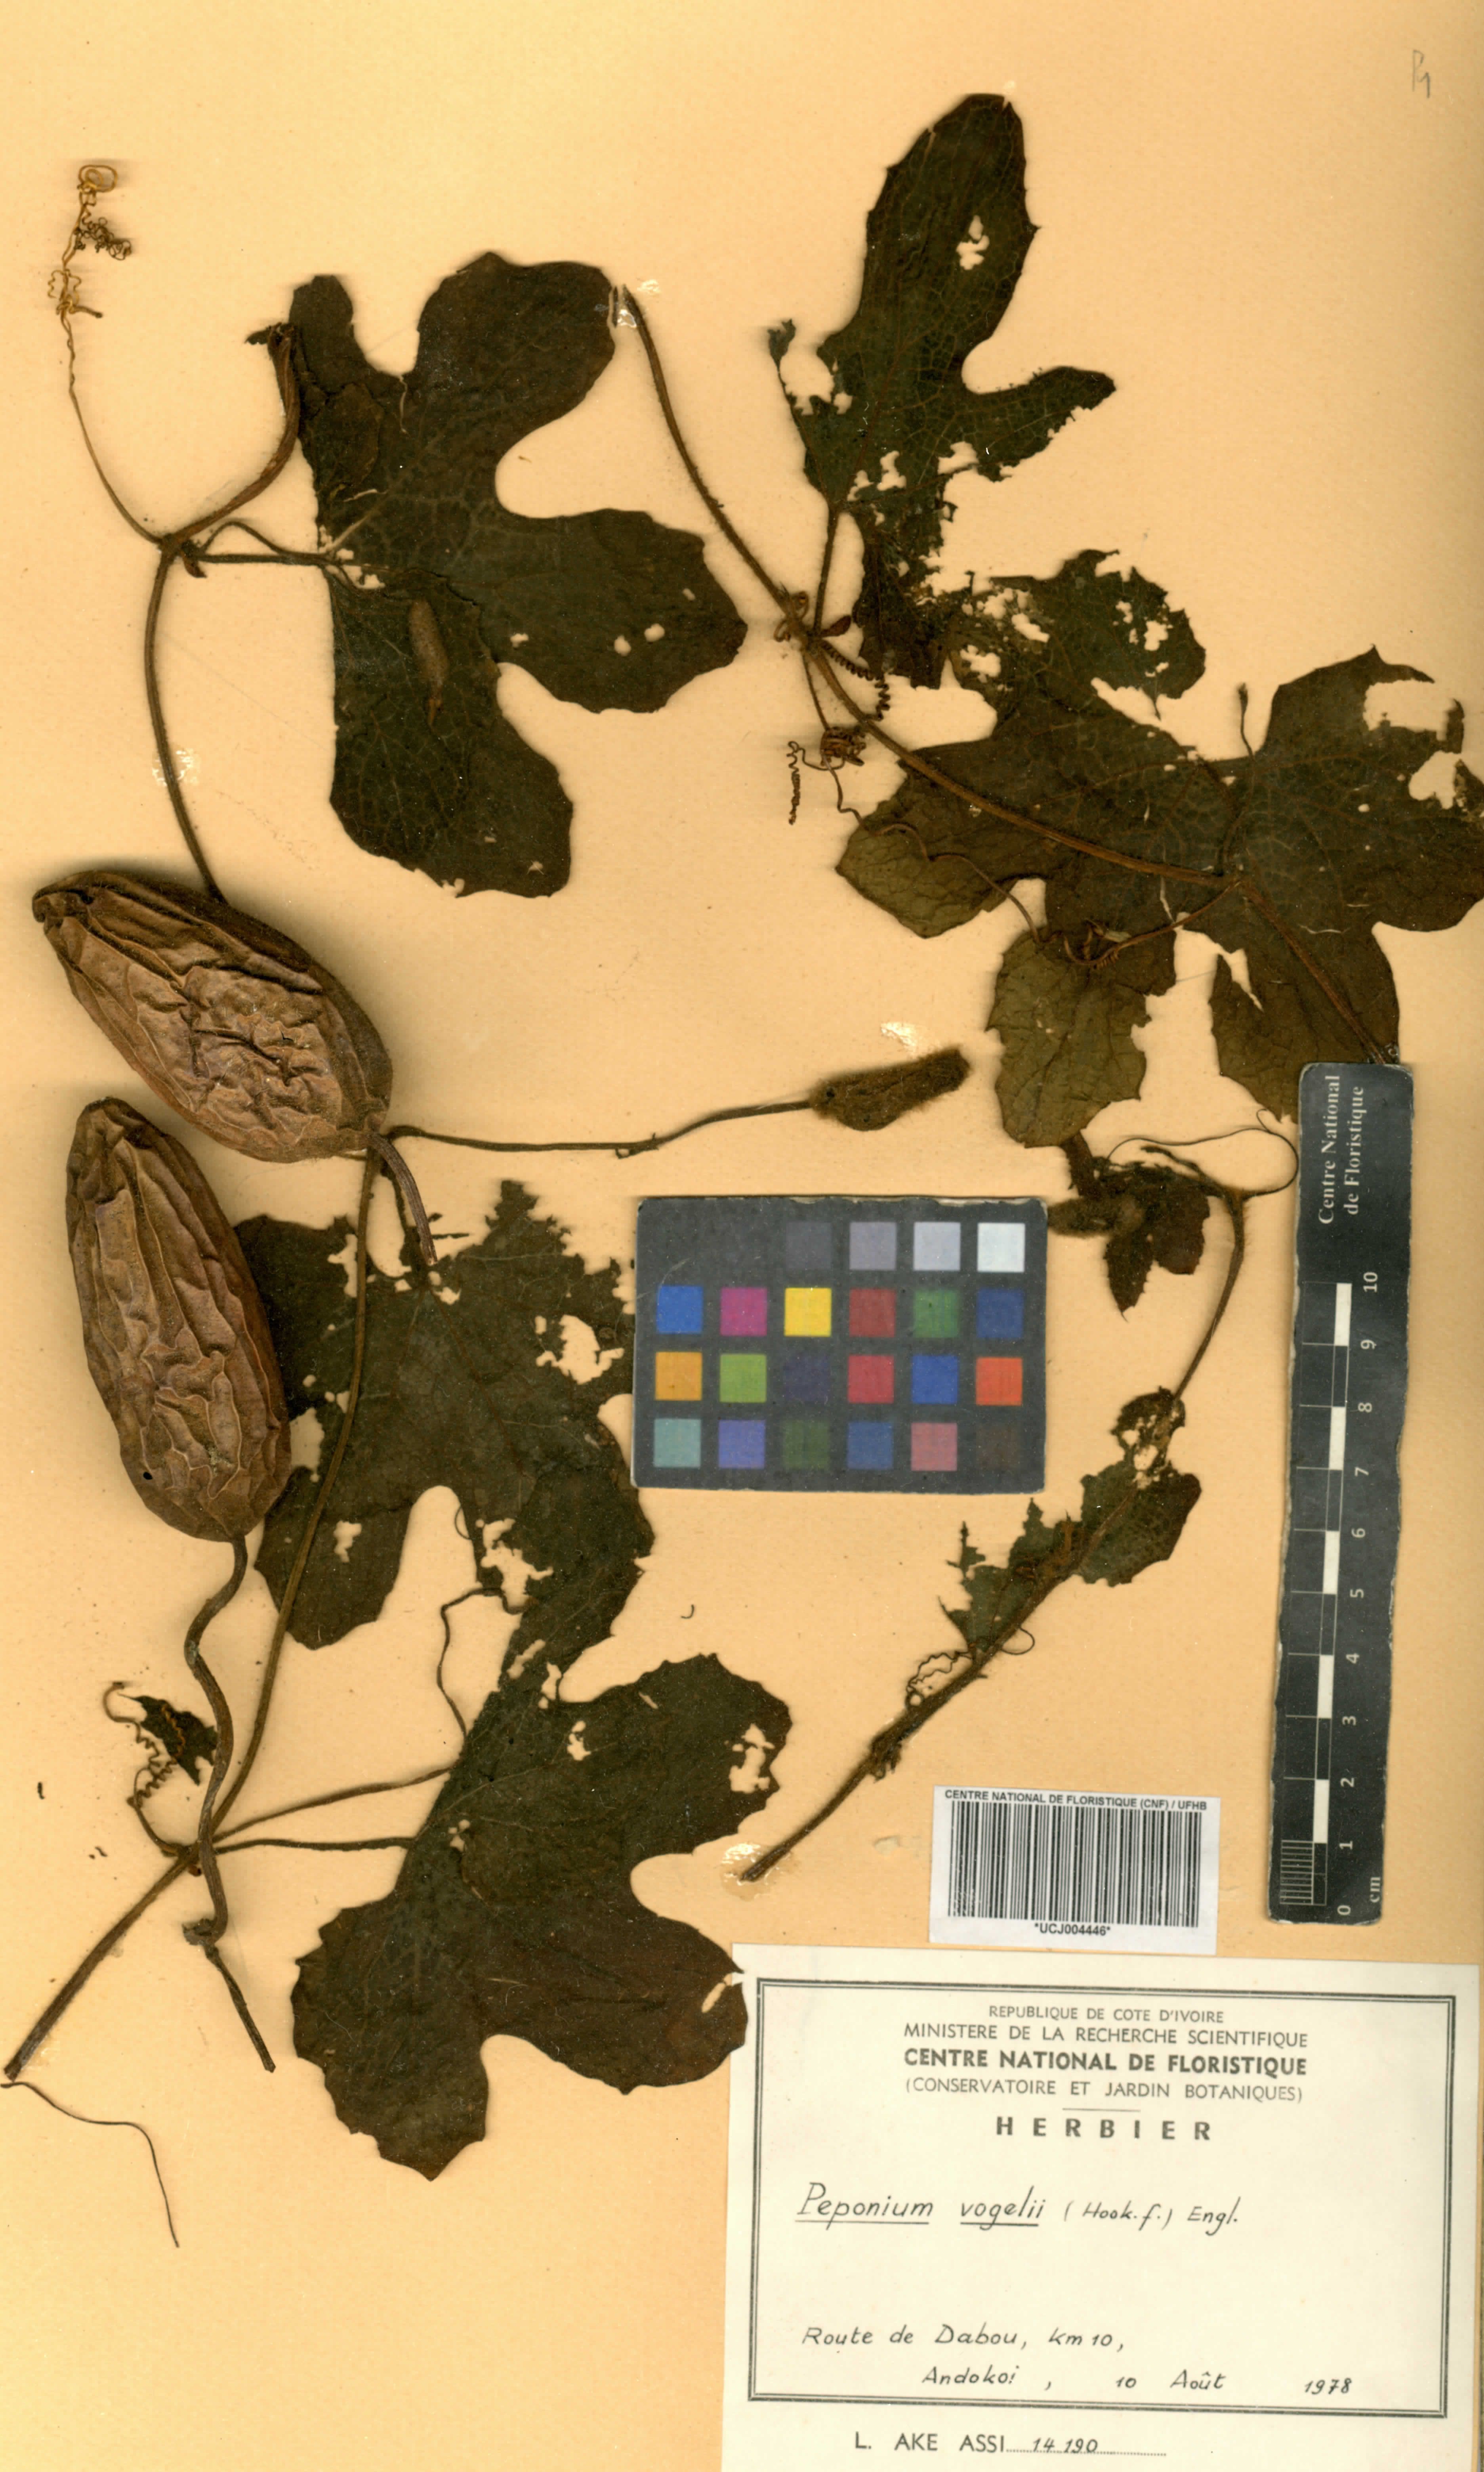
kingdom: Plantae
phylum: Tracheophyta
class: Magnoliopsida
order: Cucurbitales
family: Cucurbitaceae
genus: Peponium
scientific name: Peponium vogelii
